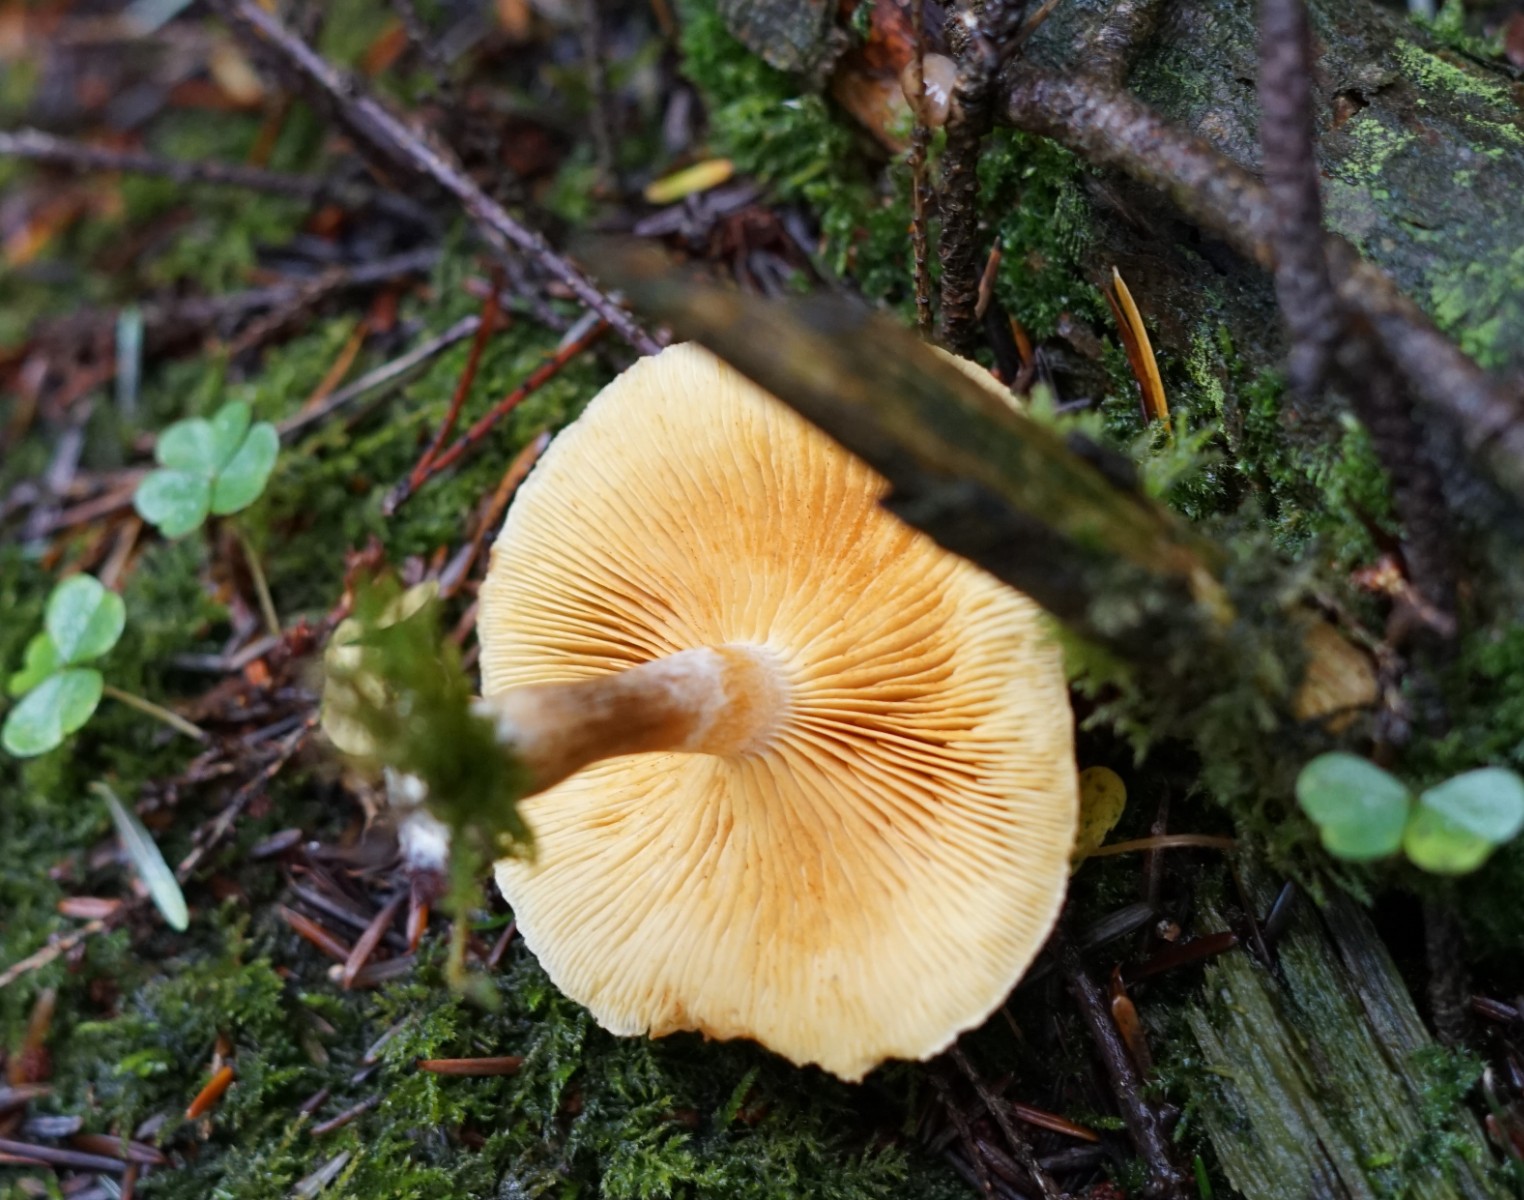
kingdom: Fungi
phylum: Basidiomycota
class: Agaricomycetes
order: Agaricales
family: Hymenogastraceae
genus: Gymnopilus
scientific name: Gymnopilus penetrans
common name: plettet flammehat
